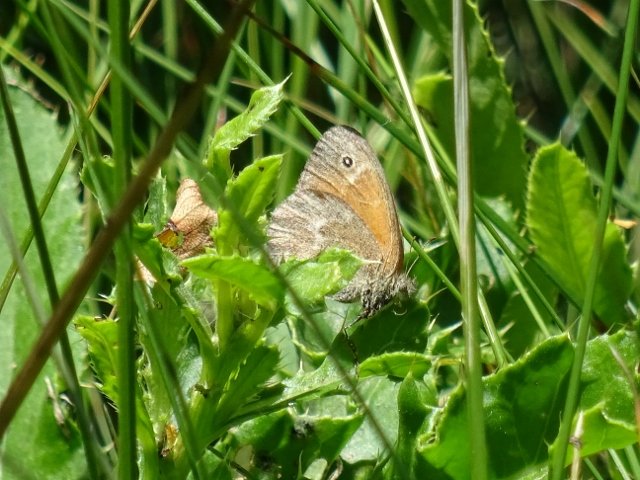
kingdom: Animalia
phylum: Arthropoda
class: Insecta
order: Lepidoptera
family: Nymphalidae
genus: Coenonympha
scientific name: Coenonympha tullia
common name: Large Heath
